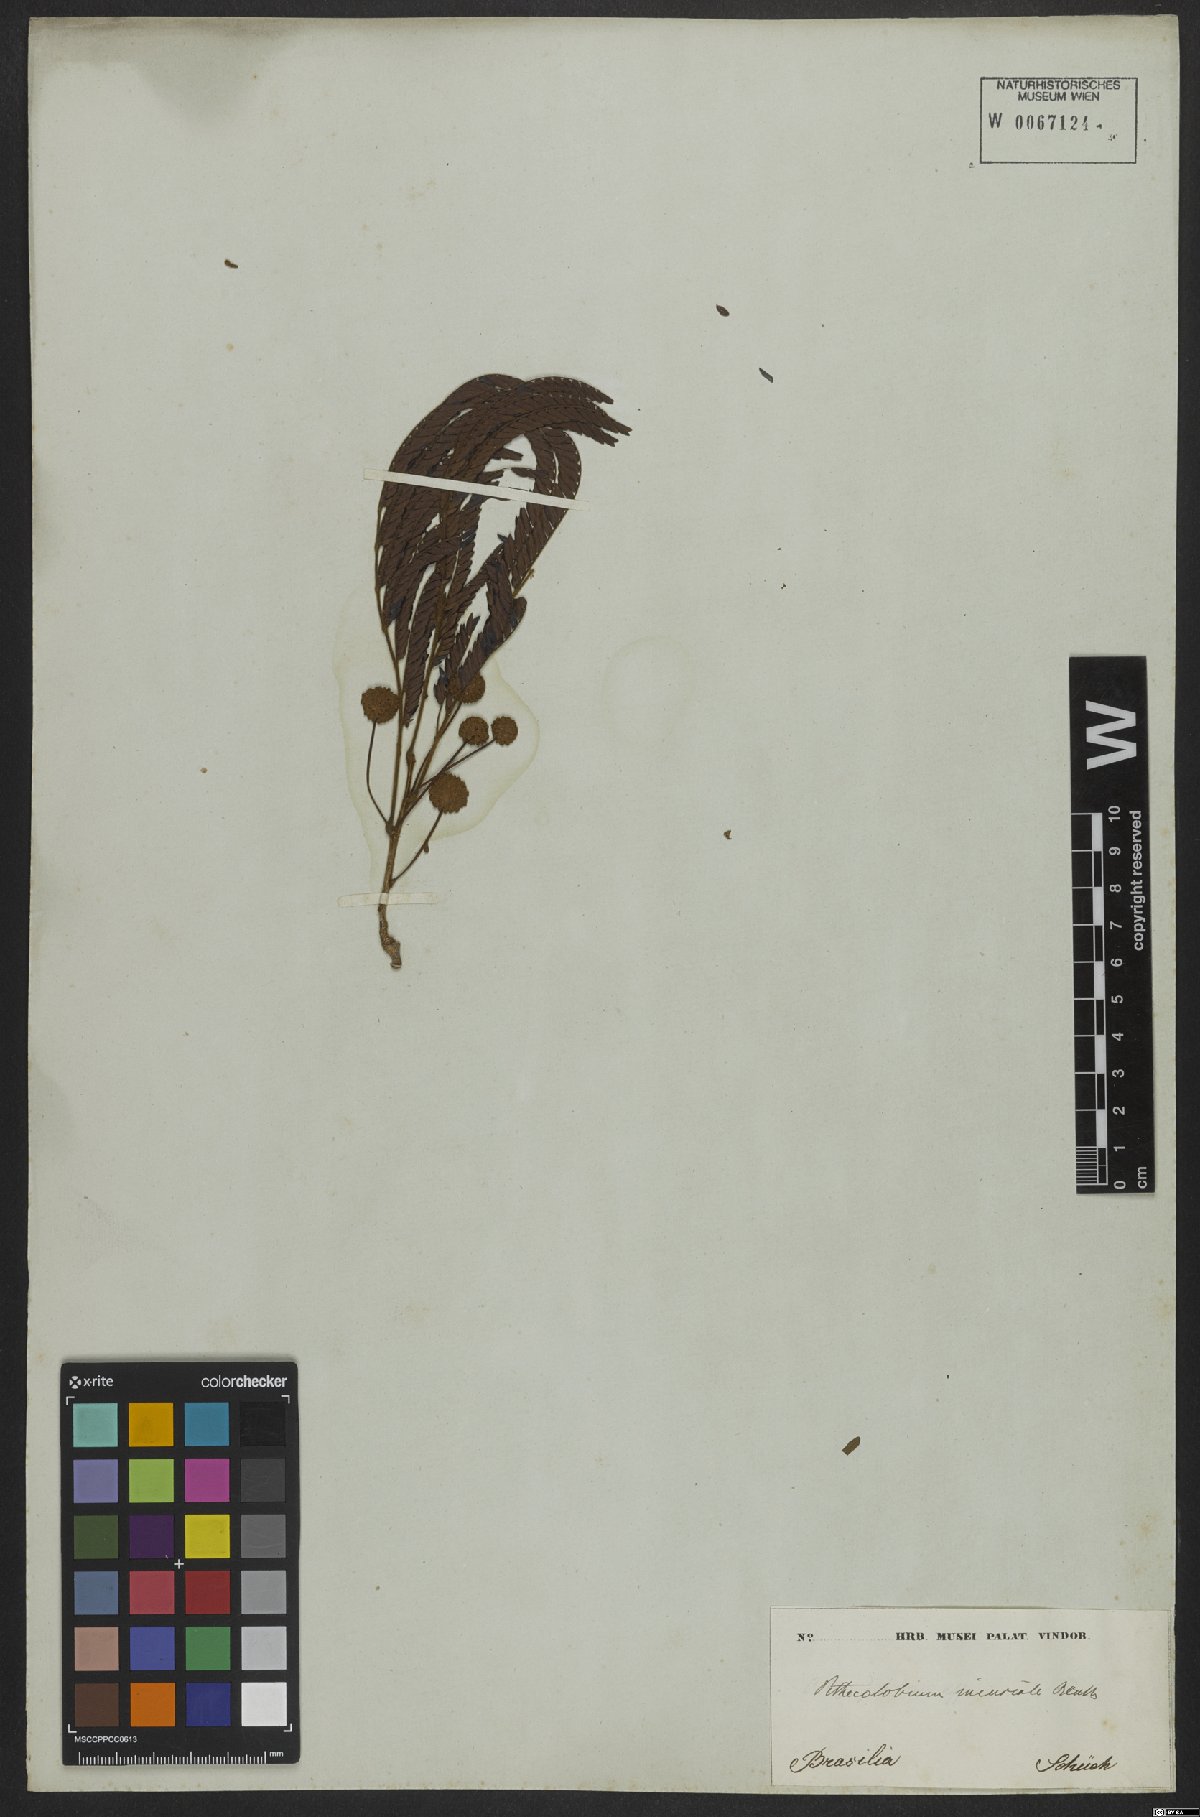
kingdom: Plantae
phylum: Tracheophyta
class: Magnoliopsida
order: Fabales
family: Fabaceae
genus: Leucochloron
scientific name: Leucochloron incuriale
